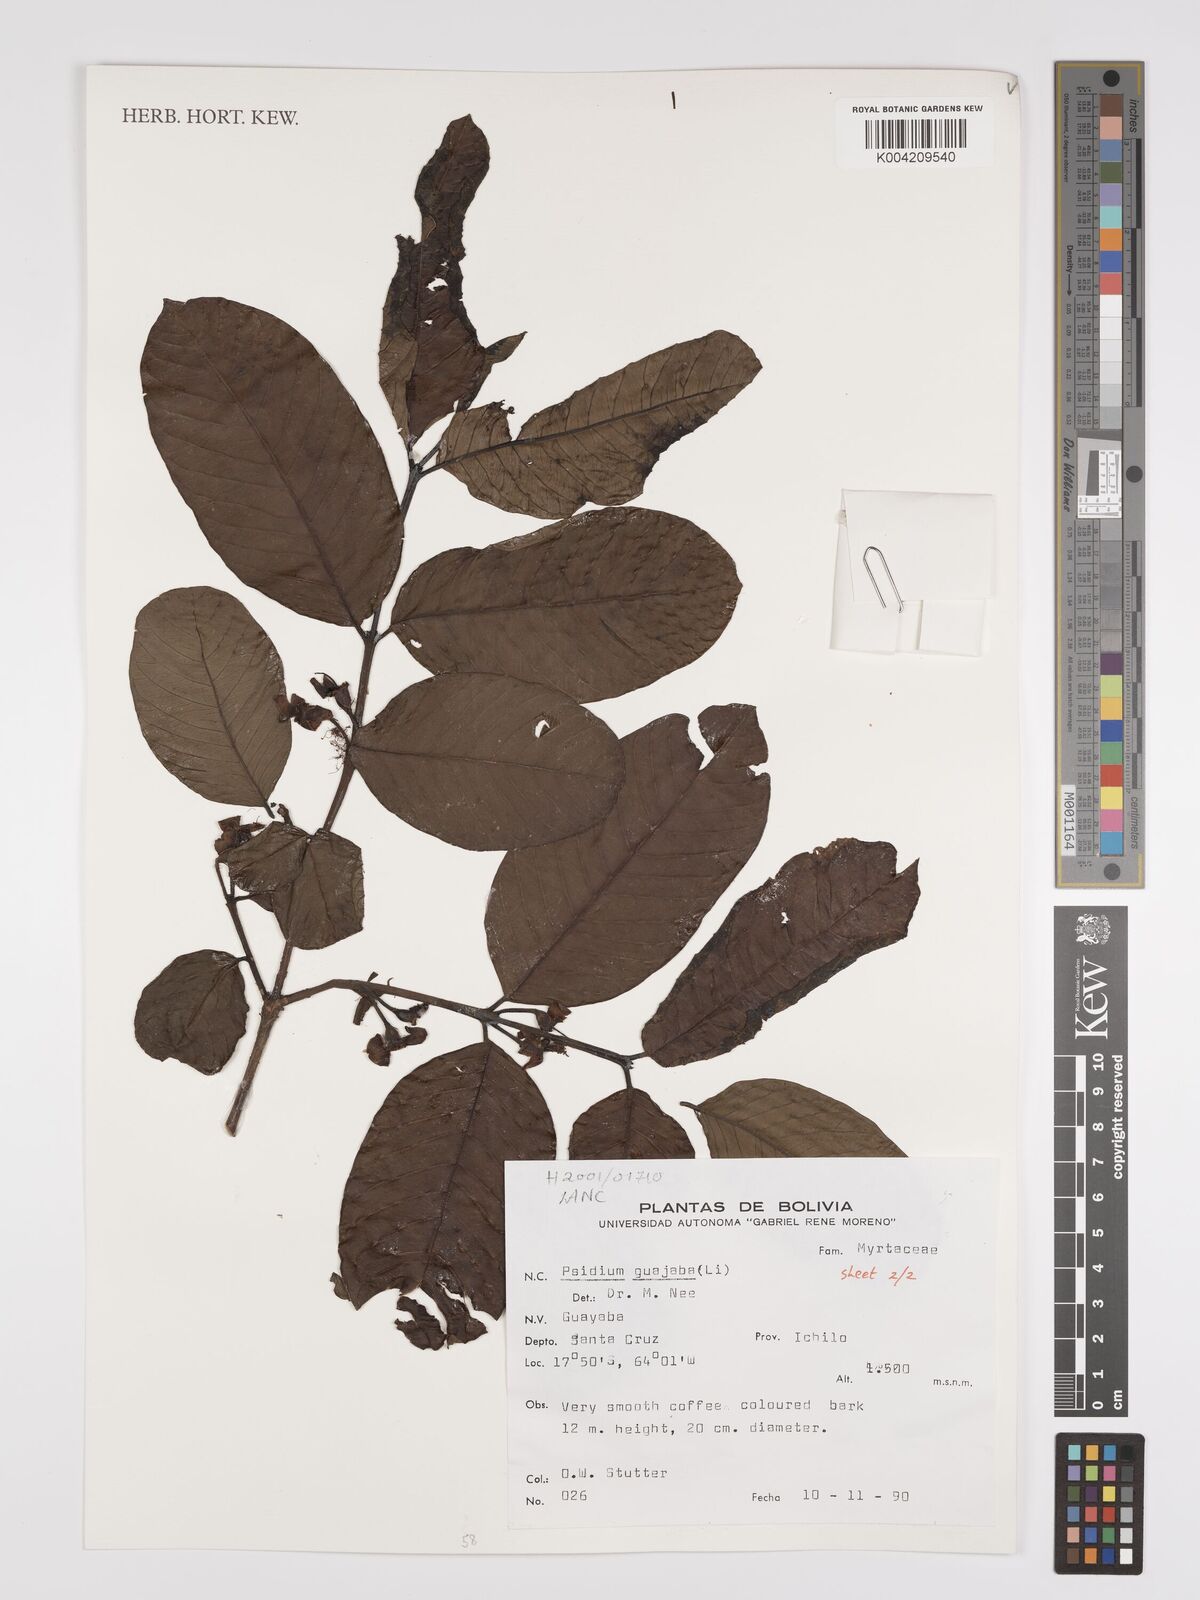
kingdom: Plantae
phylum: Tracheophyta
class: Magnoliopsida
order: Myrtales
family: Myrtaceae
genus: Psidium
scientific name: Psidium guajava
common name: Guava
